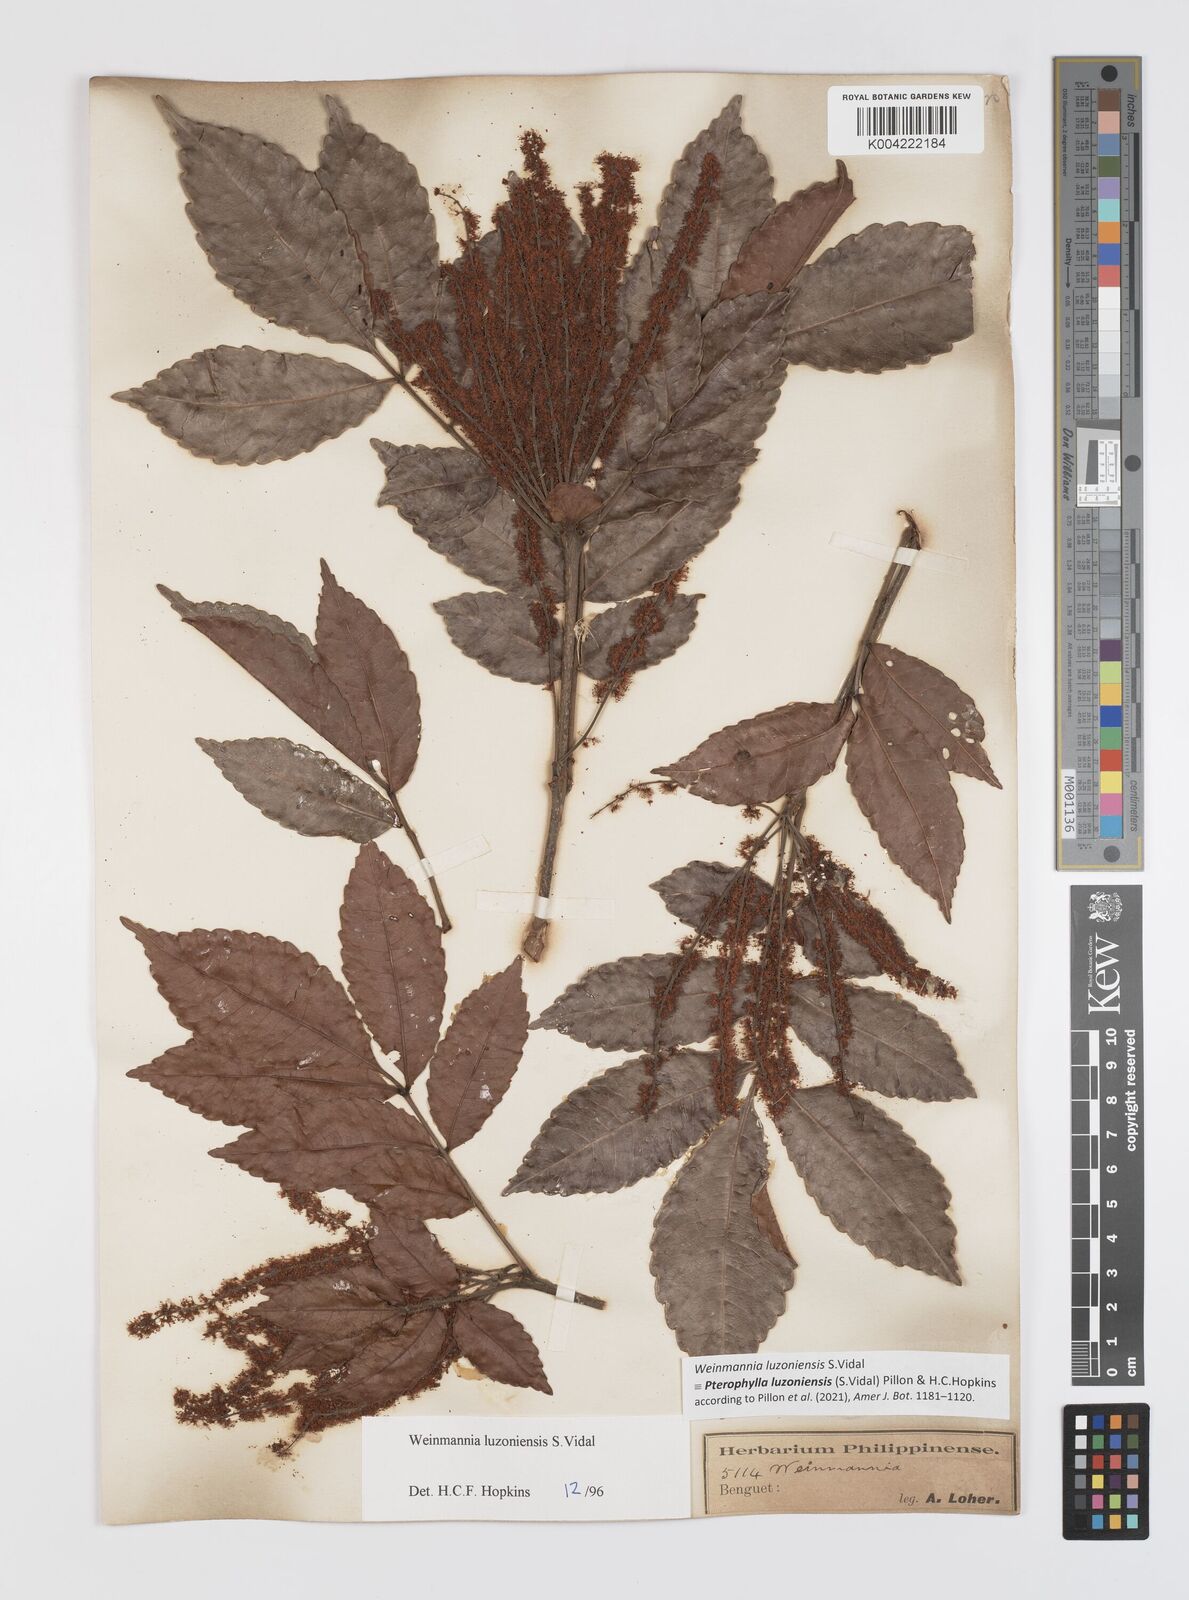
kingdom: Plantae
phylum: Tracheophyta
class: Magnoliopsida
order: Oxalidales
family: Cunoniaceae
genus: Pterophylla
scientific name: Pterophylla luzoniensis
